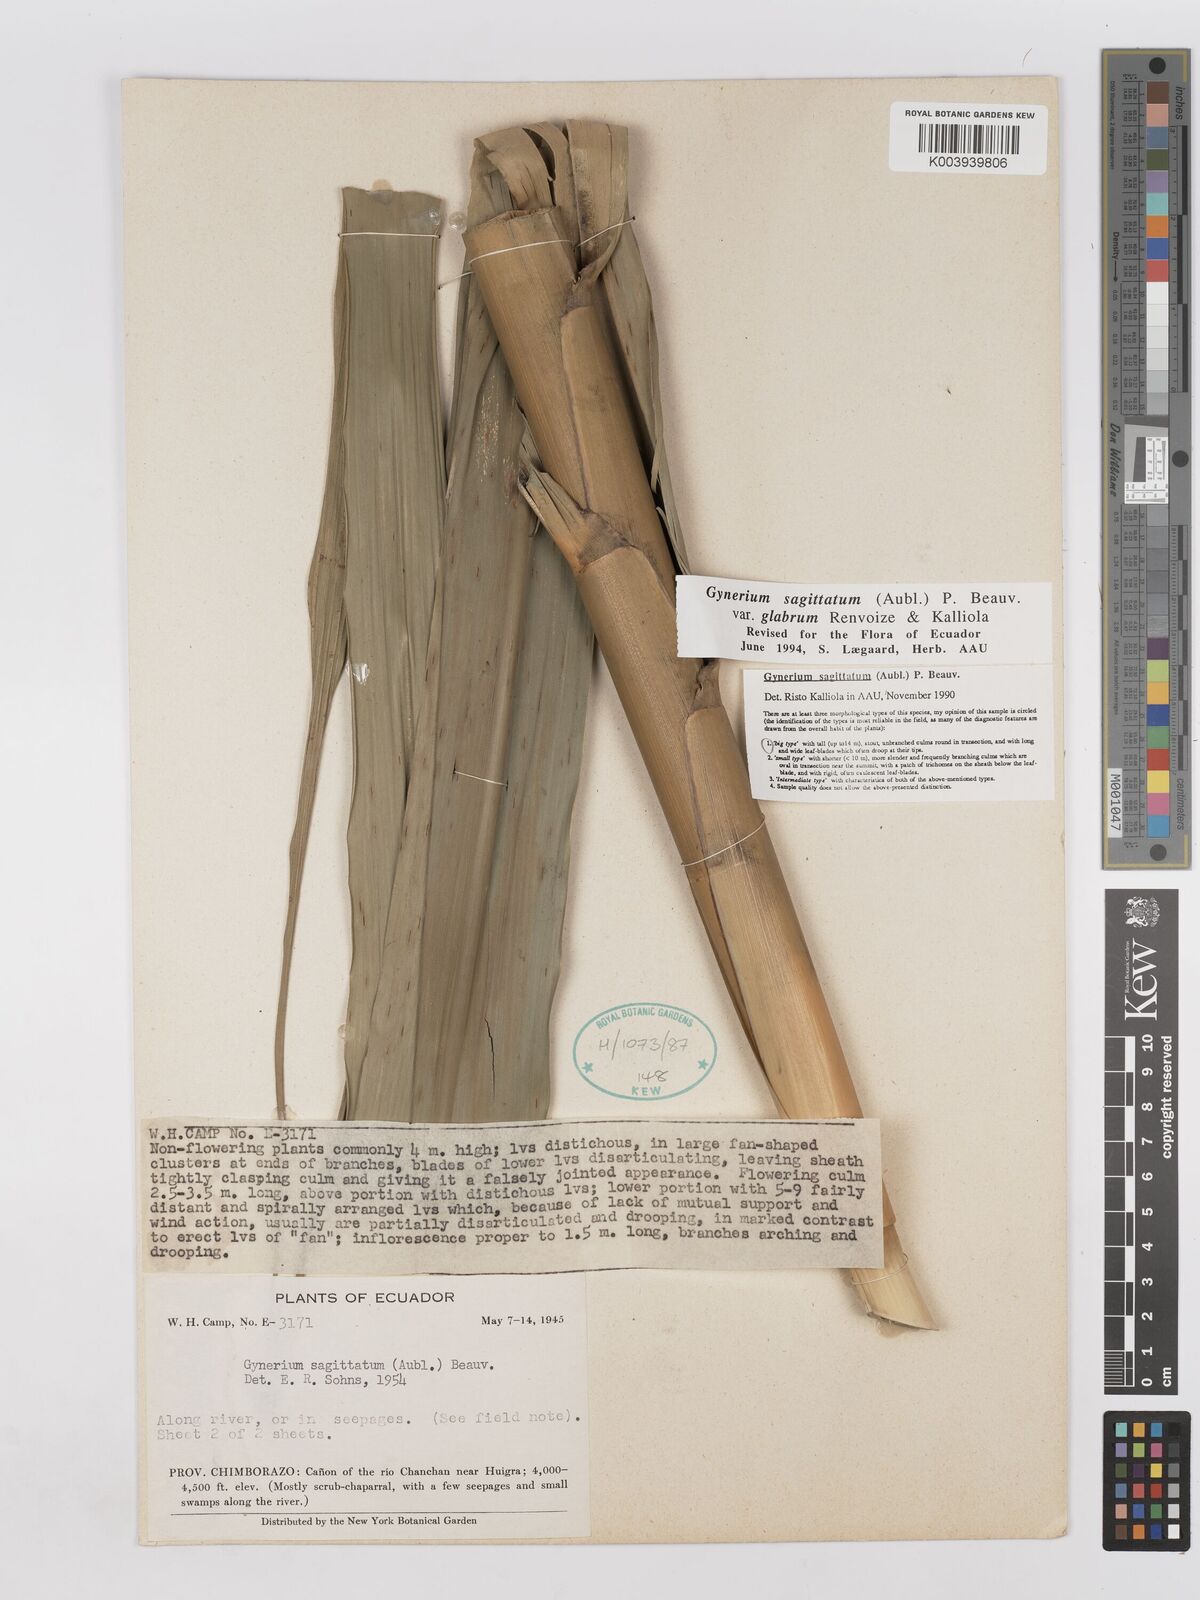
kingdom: Plantae
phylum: Tracheophyta
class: Liliopsida
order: Poales
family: Poaceae
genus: Gynerium
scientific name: Gynerium sagittatum
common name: Wild cane
